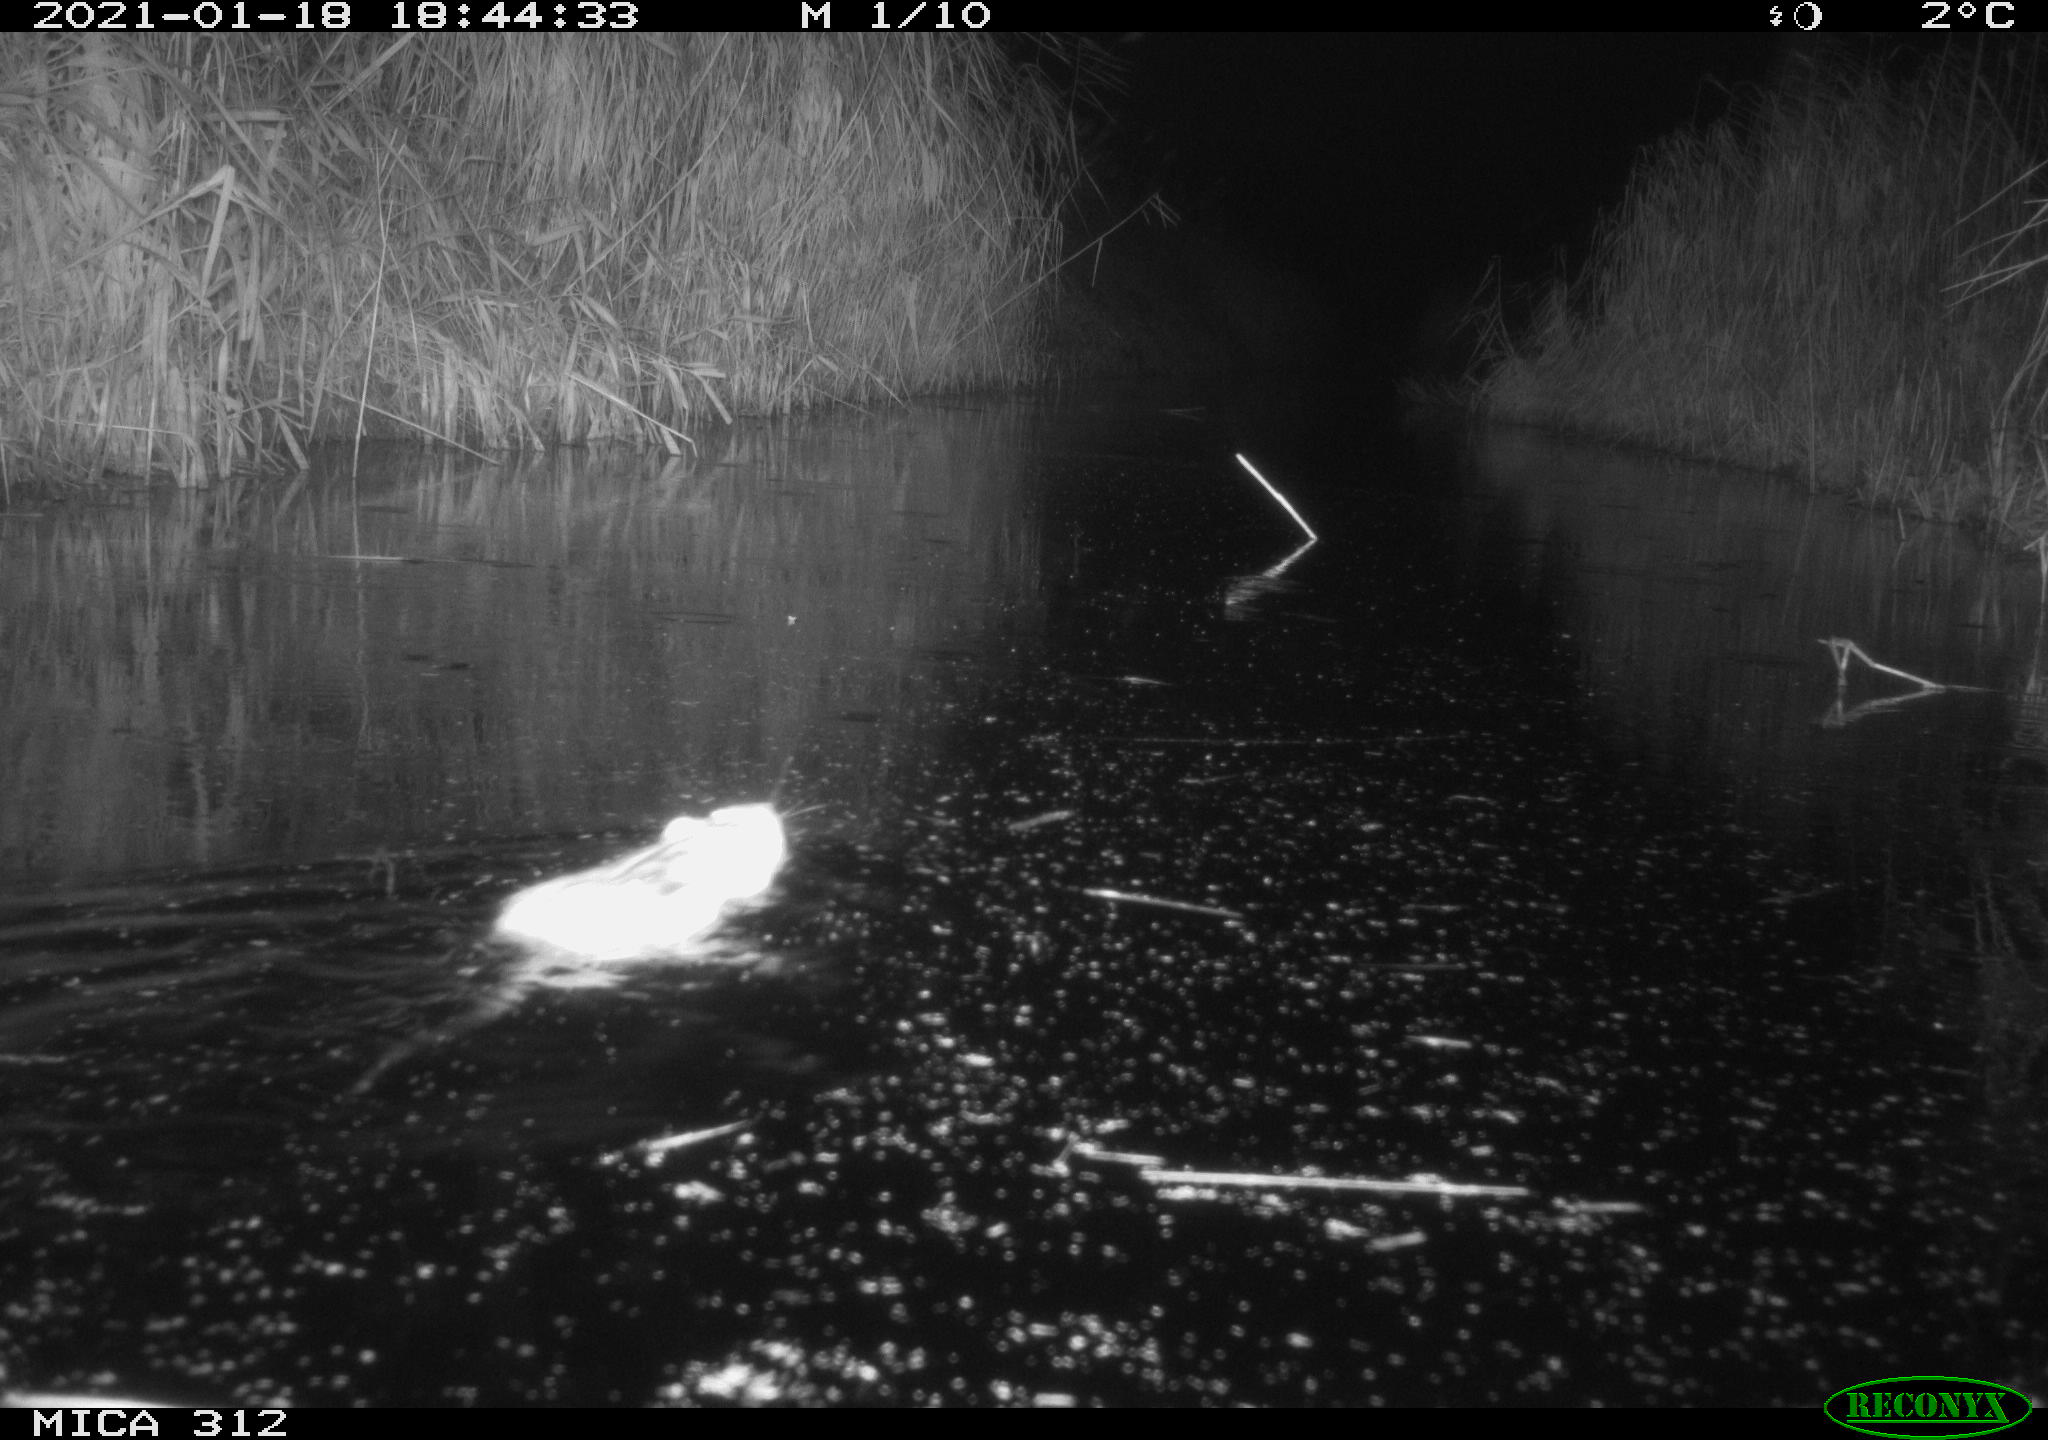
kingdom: Animalia
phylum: Chordata
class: Mammalia
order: Rodentia
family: Muridae
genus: Rattus
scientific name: Rattus norvegicus
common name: Brown rat
